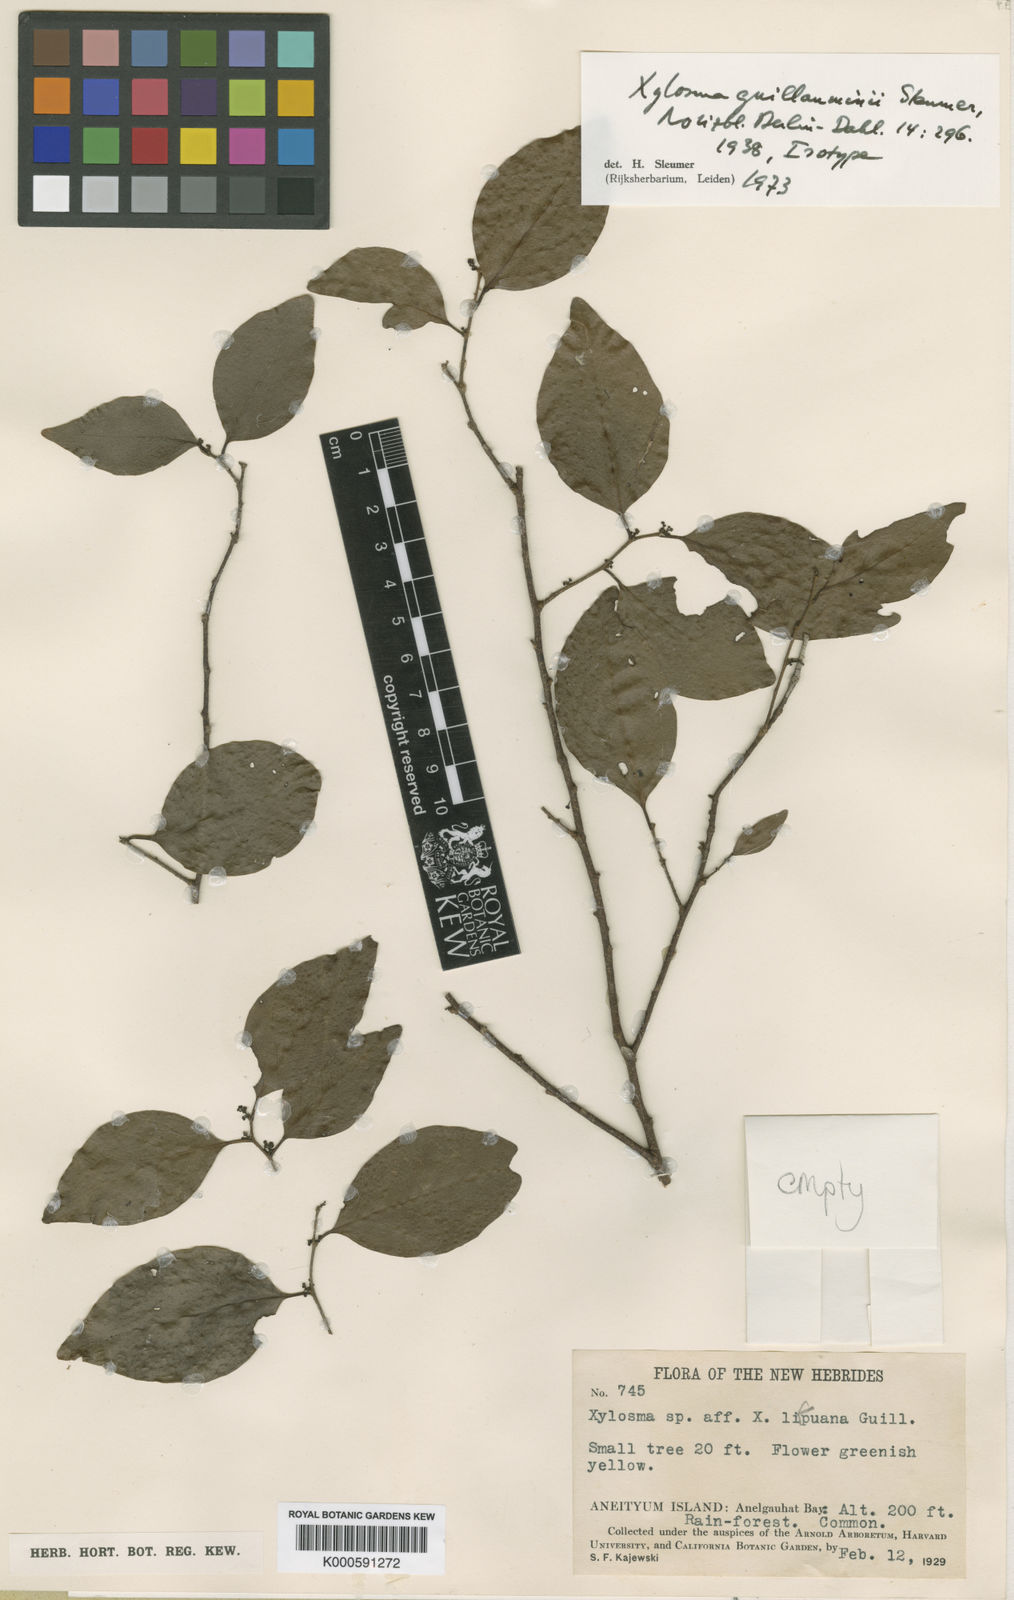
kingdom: Plantae
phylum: Tracheophyta
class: Magnoliopsida
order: Malpighiales
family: Salicaceae
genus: Xylosma
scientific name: Xylosma lifuana
